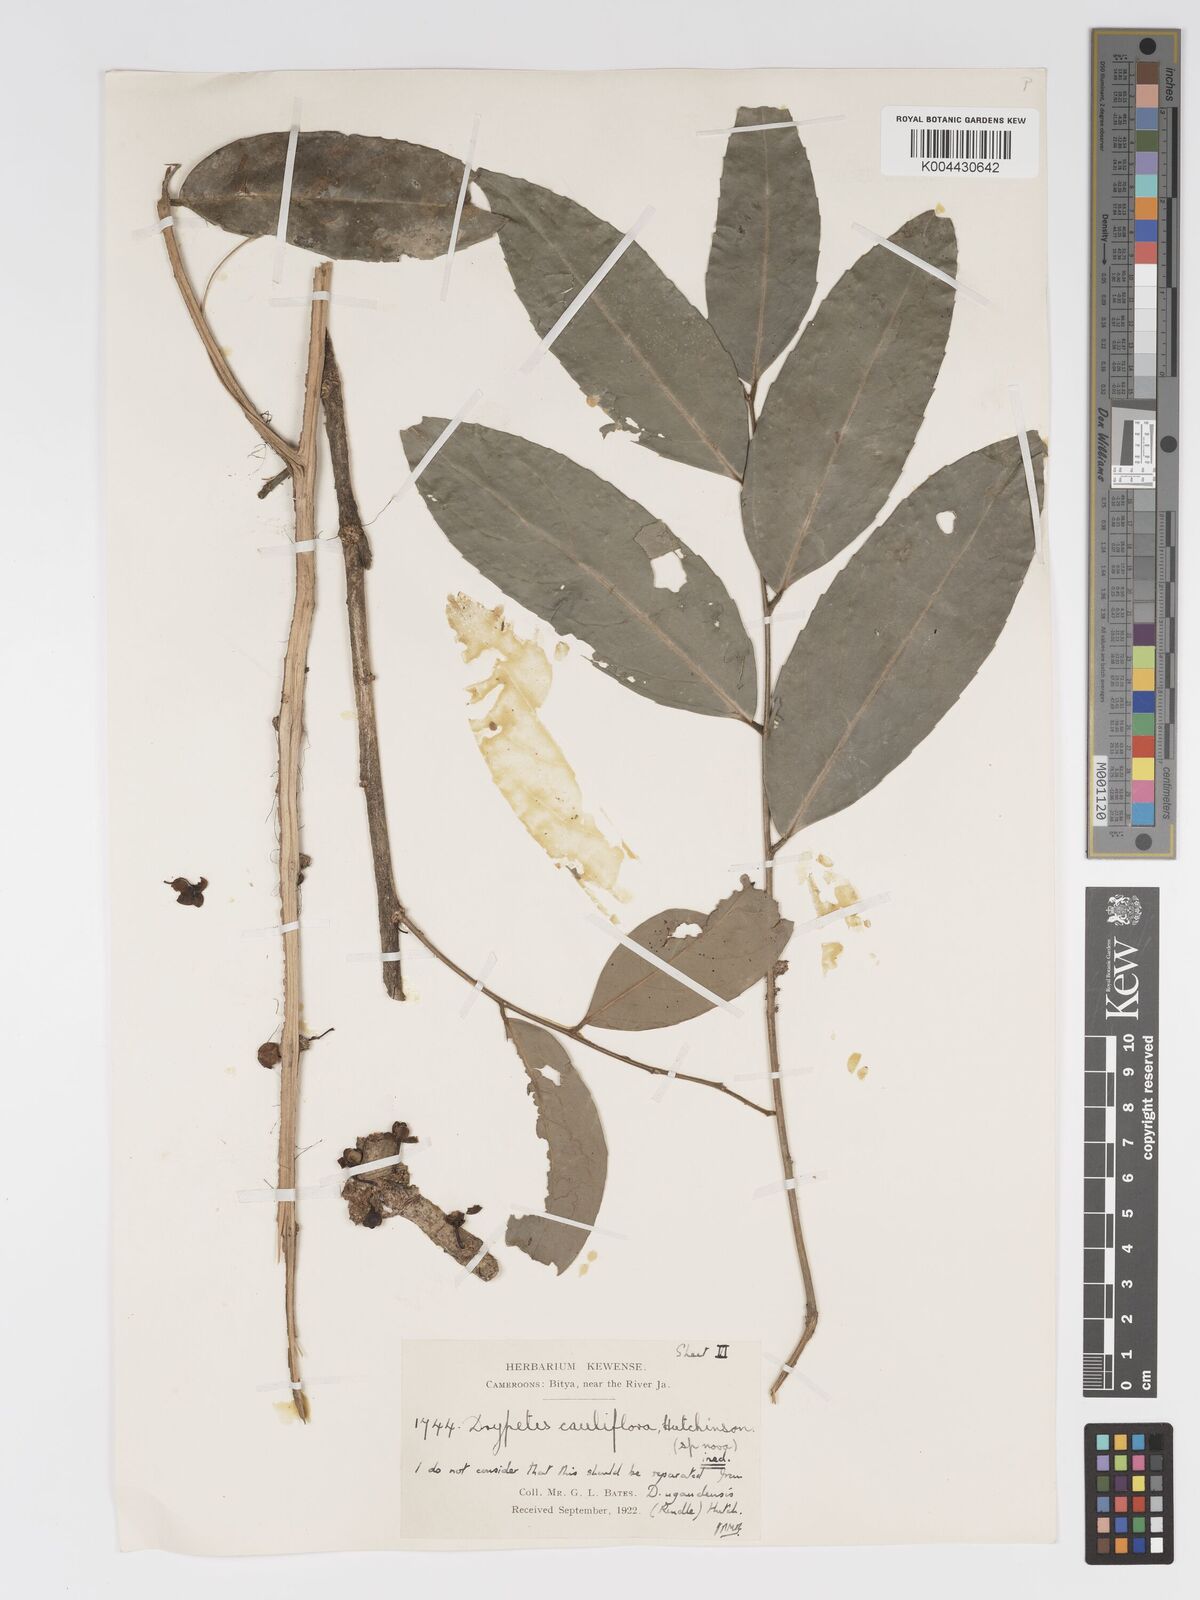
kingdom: Plantae
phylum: Tracheophyta
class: Magnoliopsida
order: Malpighiales
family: Putranjivaceae
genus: Drypetes
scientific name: Drypetes ugandensis
